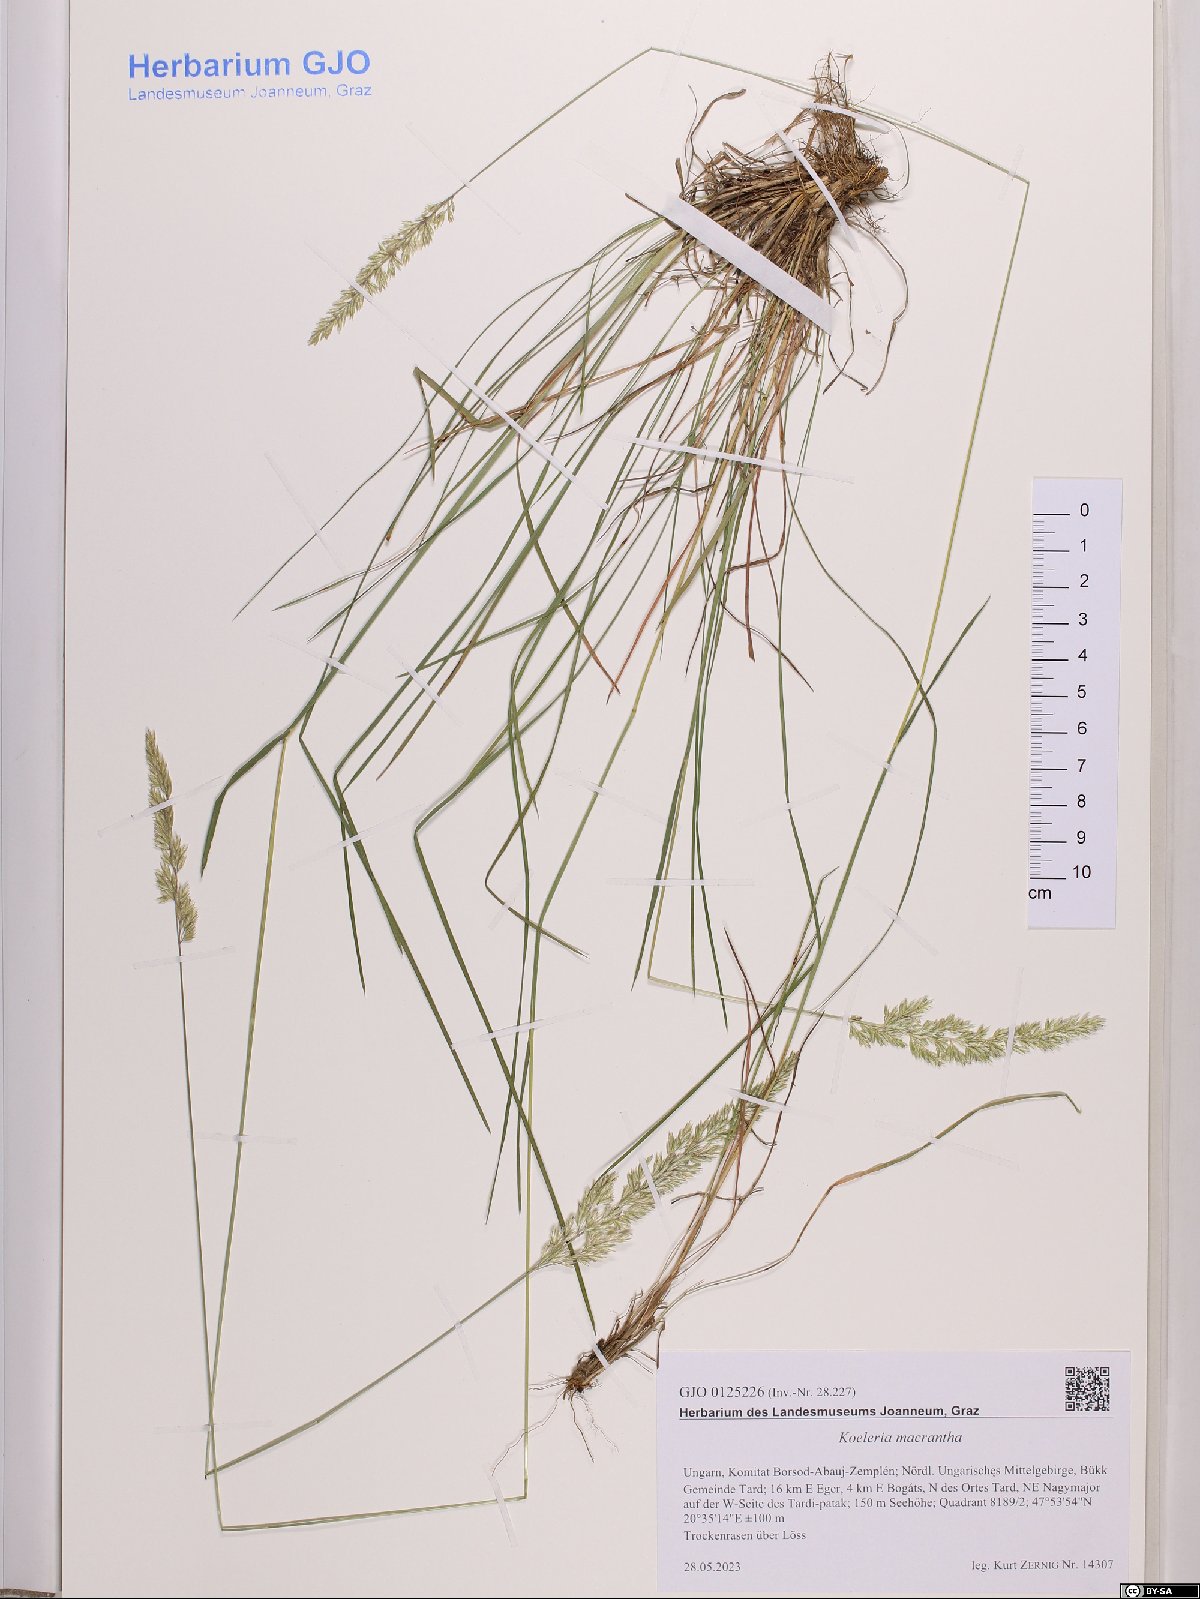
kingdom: Plantae
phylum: Tracheophyta
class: Liliopsida
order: Poales
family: Poaceae
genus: Koeleria
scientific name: Koeleria macrantha
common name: Crested hair-grass
